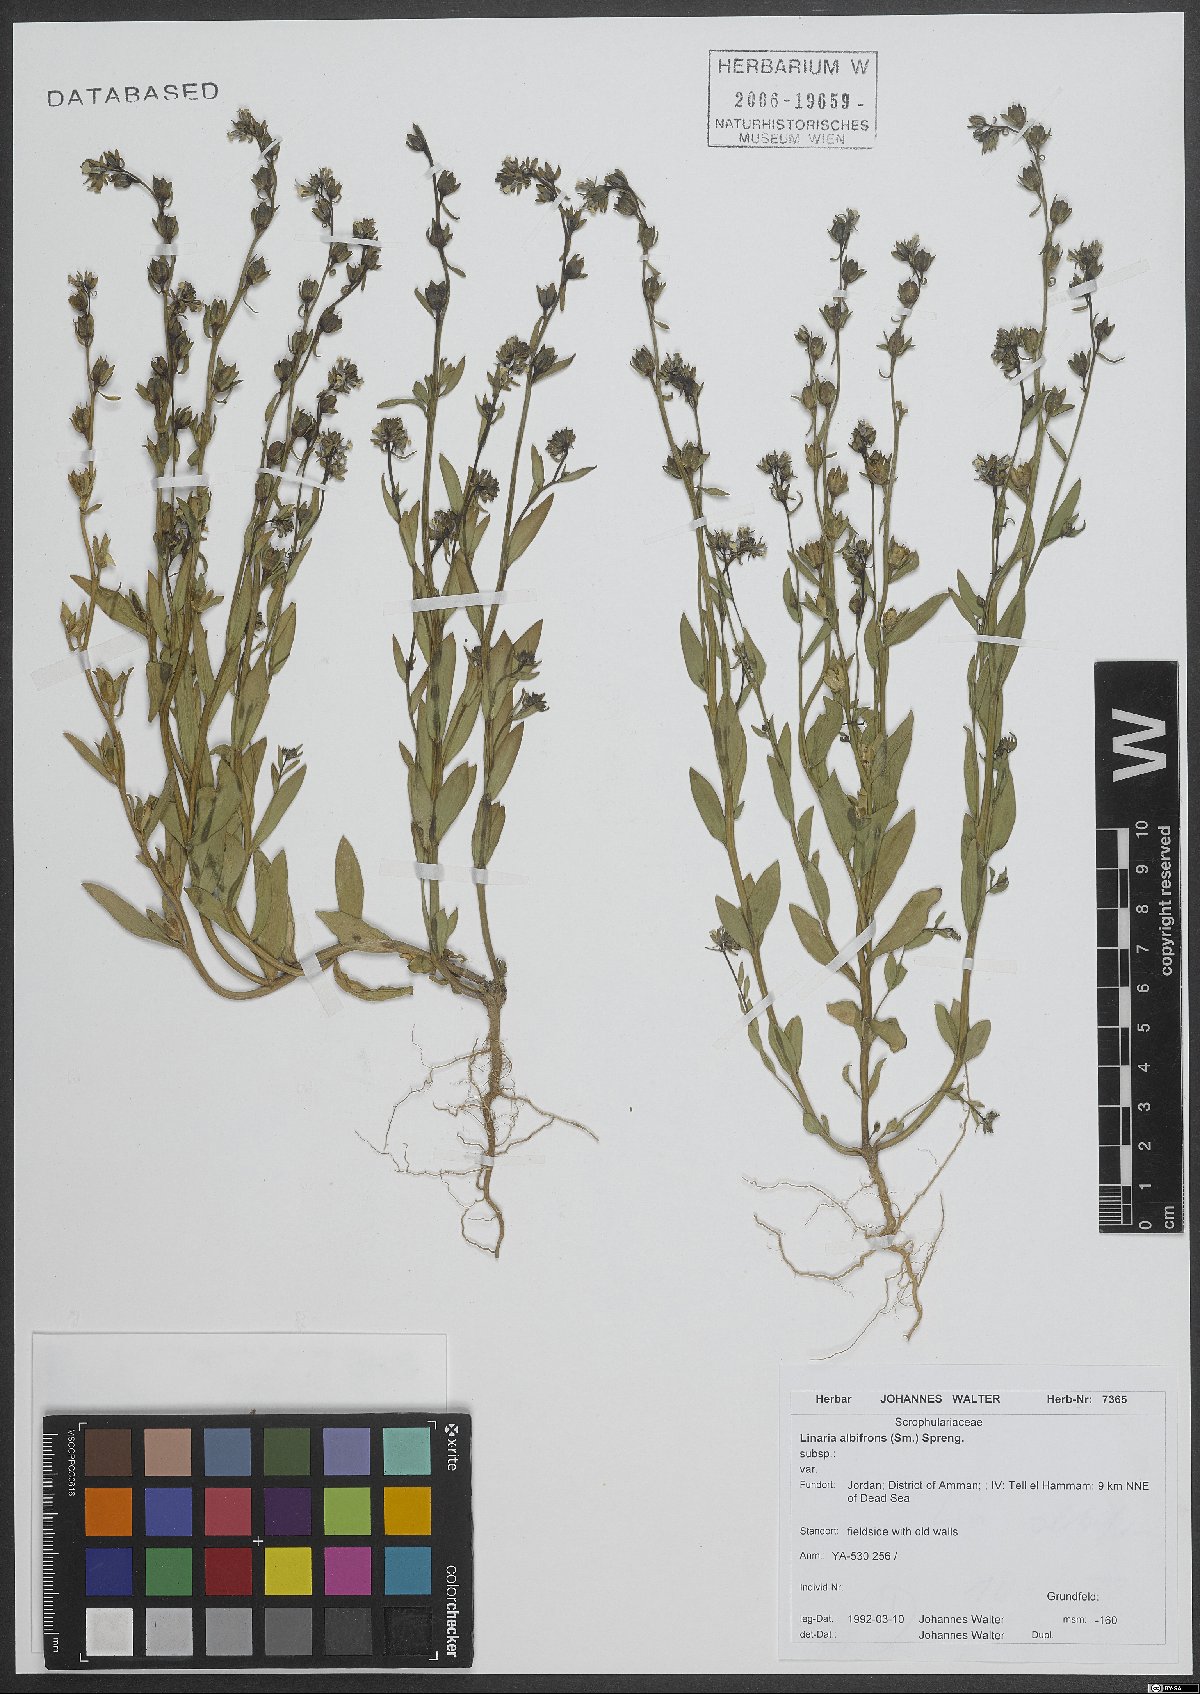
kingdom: Plantae
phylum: Tracheophyta
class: Magnoliopsida
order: Lamiales
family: Plantaginaceae
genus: Linaria
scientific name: Linaria albifrons
